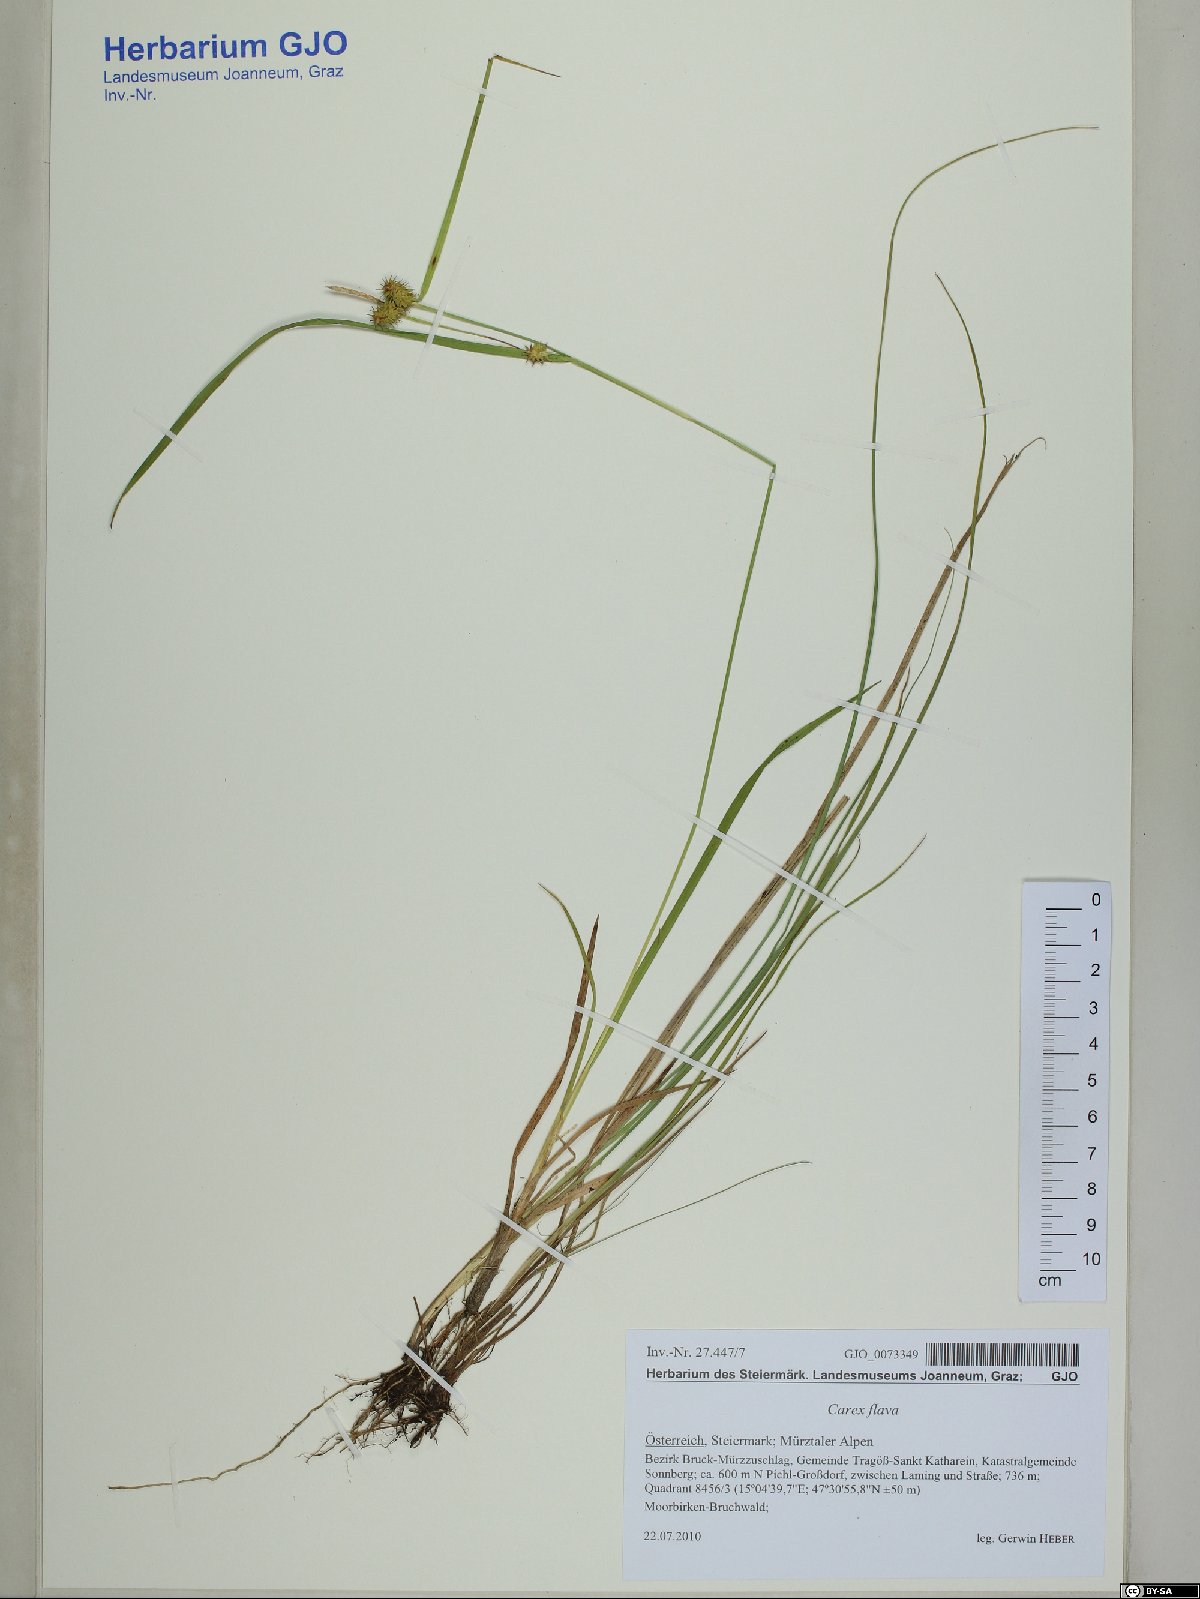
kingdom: Plantae
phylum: Tracheophyta
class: Liliopsida
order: Poales
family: Cyperaceae
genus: Carex
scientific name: Carex flava
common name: Large yellow-sedge
